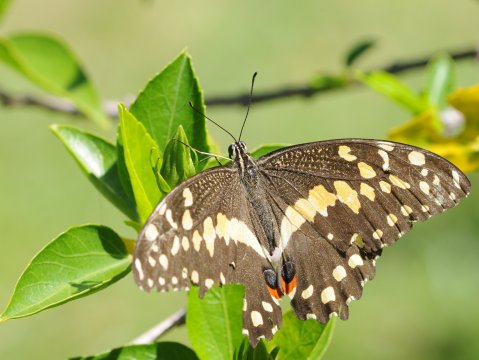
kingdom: Animalia
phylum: Arthropoda
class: Insecta
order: Lepidoptera
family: Papilionidae
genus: Papilio
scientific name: Papilio demodocus
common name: Citrus Swallowtail
